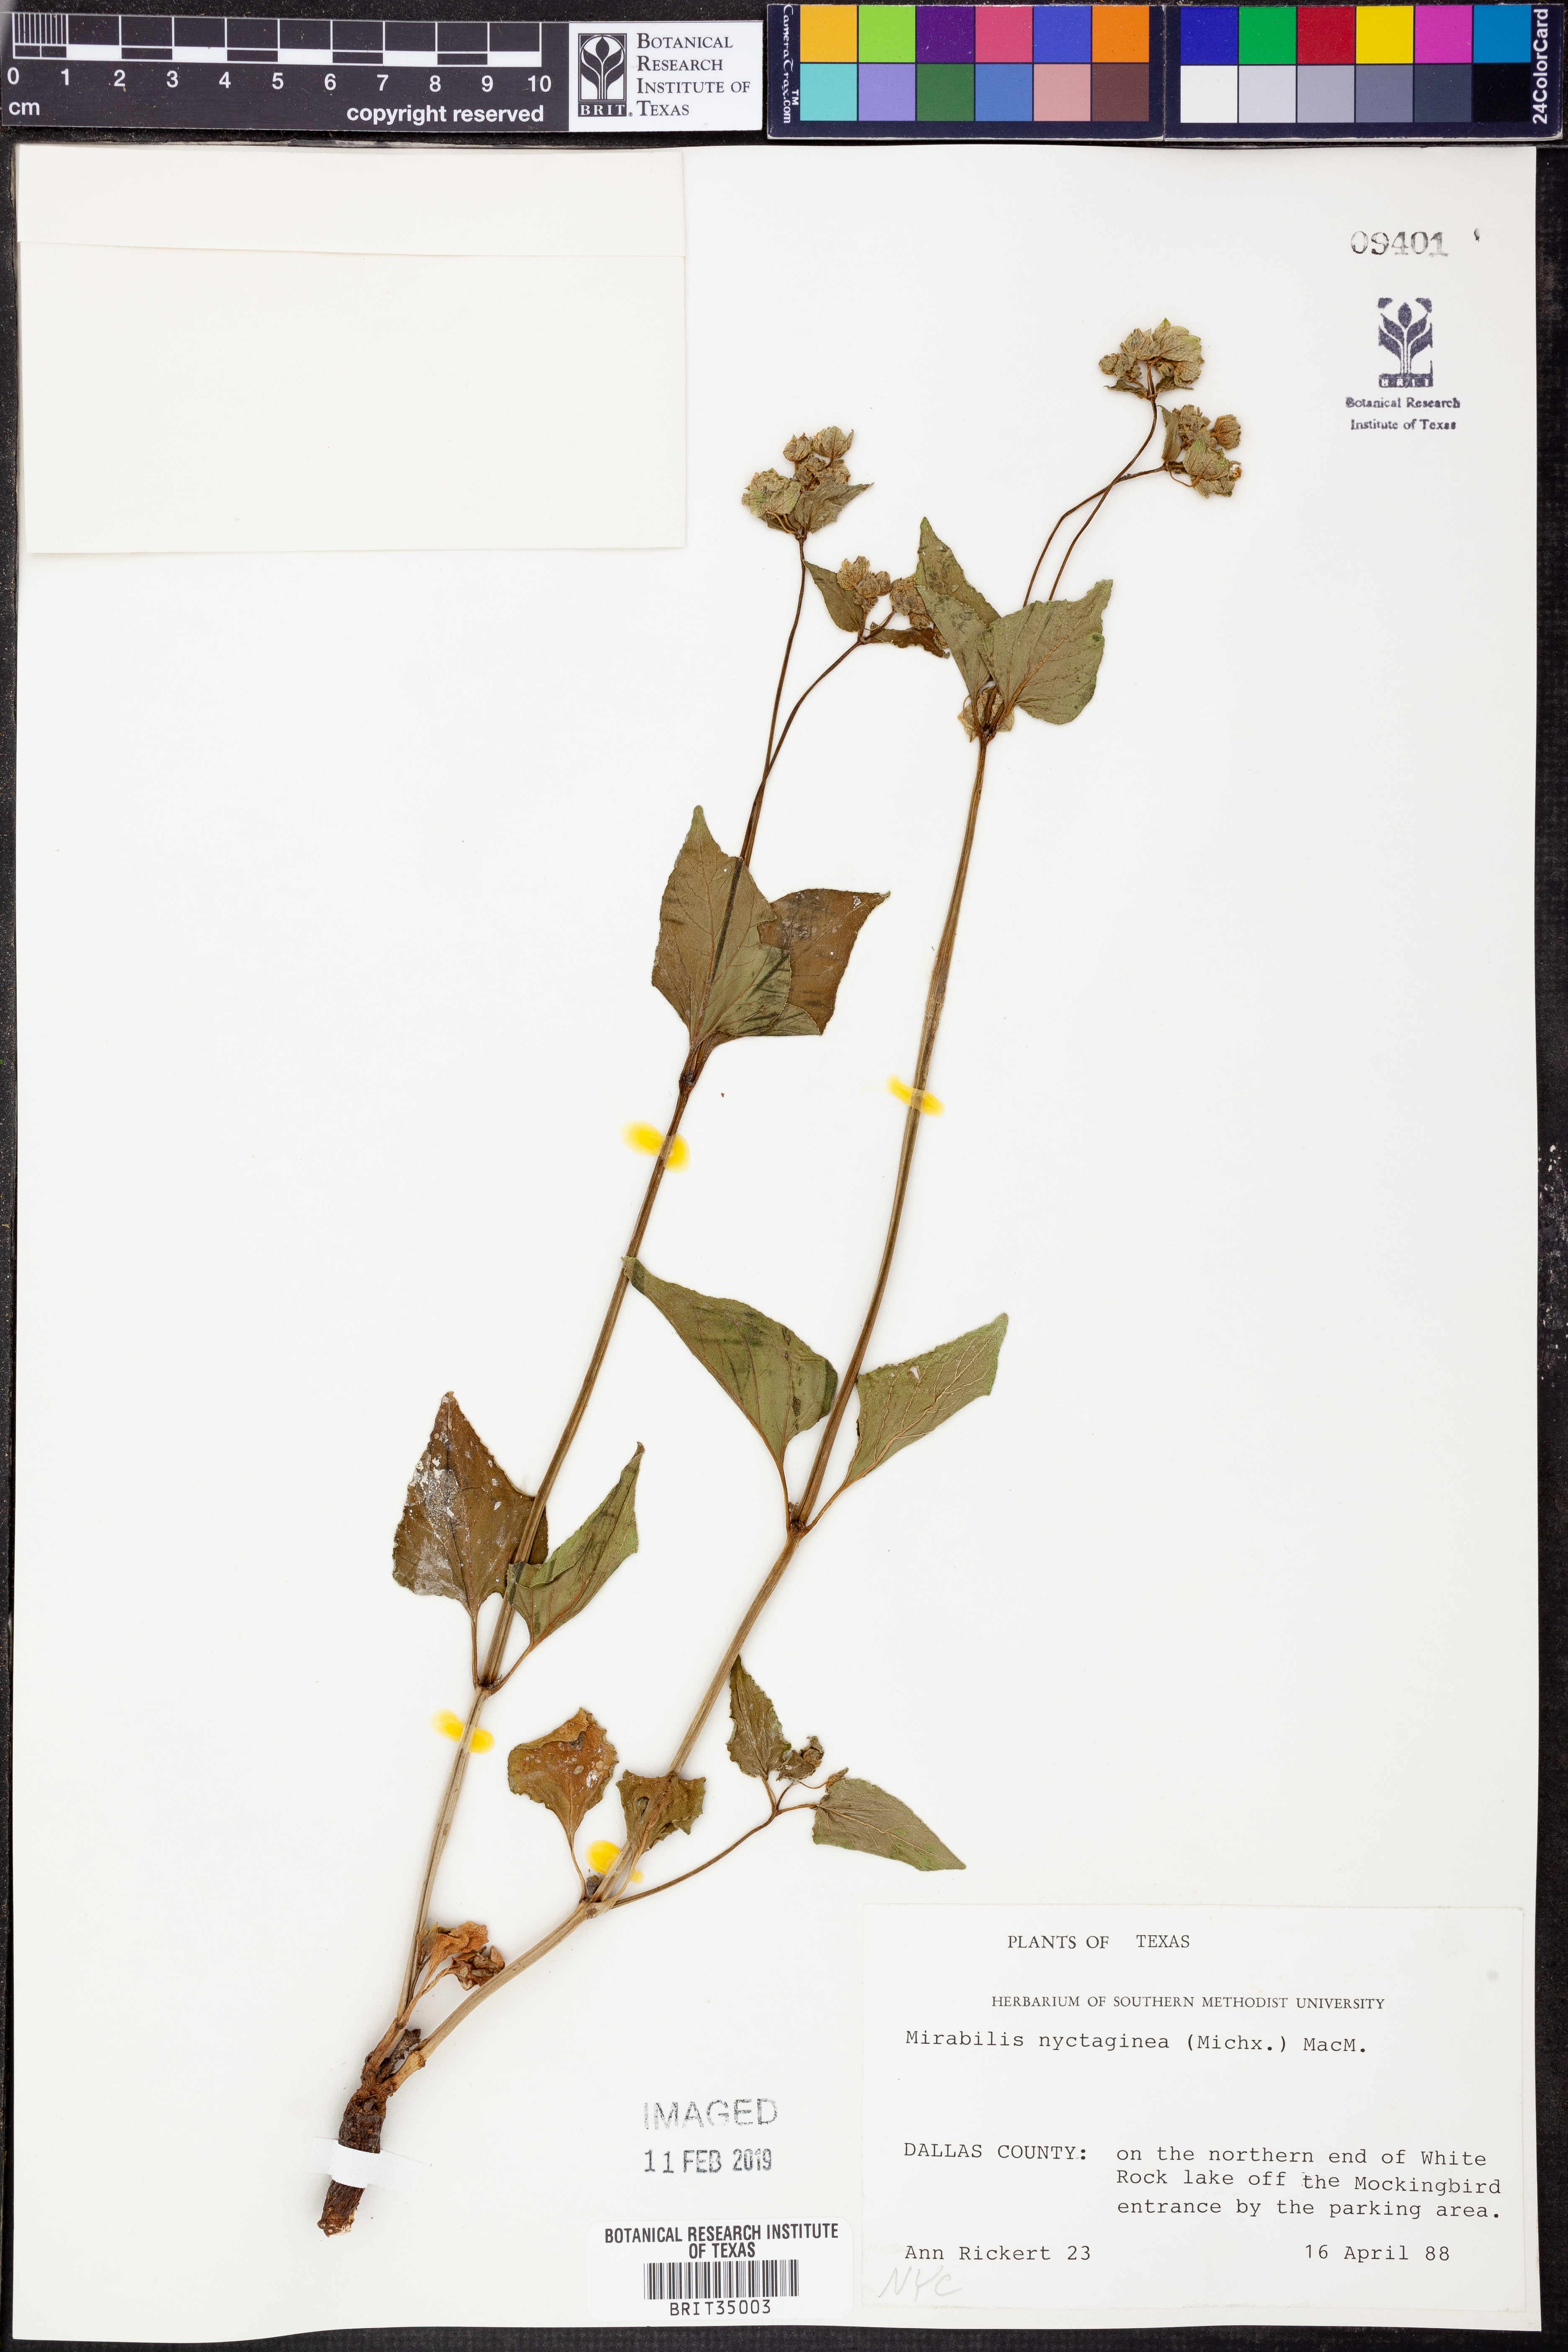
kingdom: Plantae
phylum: Tracheophyta
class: Magnoliopsida
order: Caryophyllales
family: Nyctaginaceae
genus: Mirabilis
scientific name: Mirabilis nyctaginea
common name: Umbrella wort
